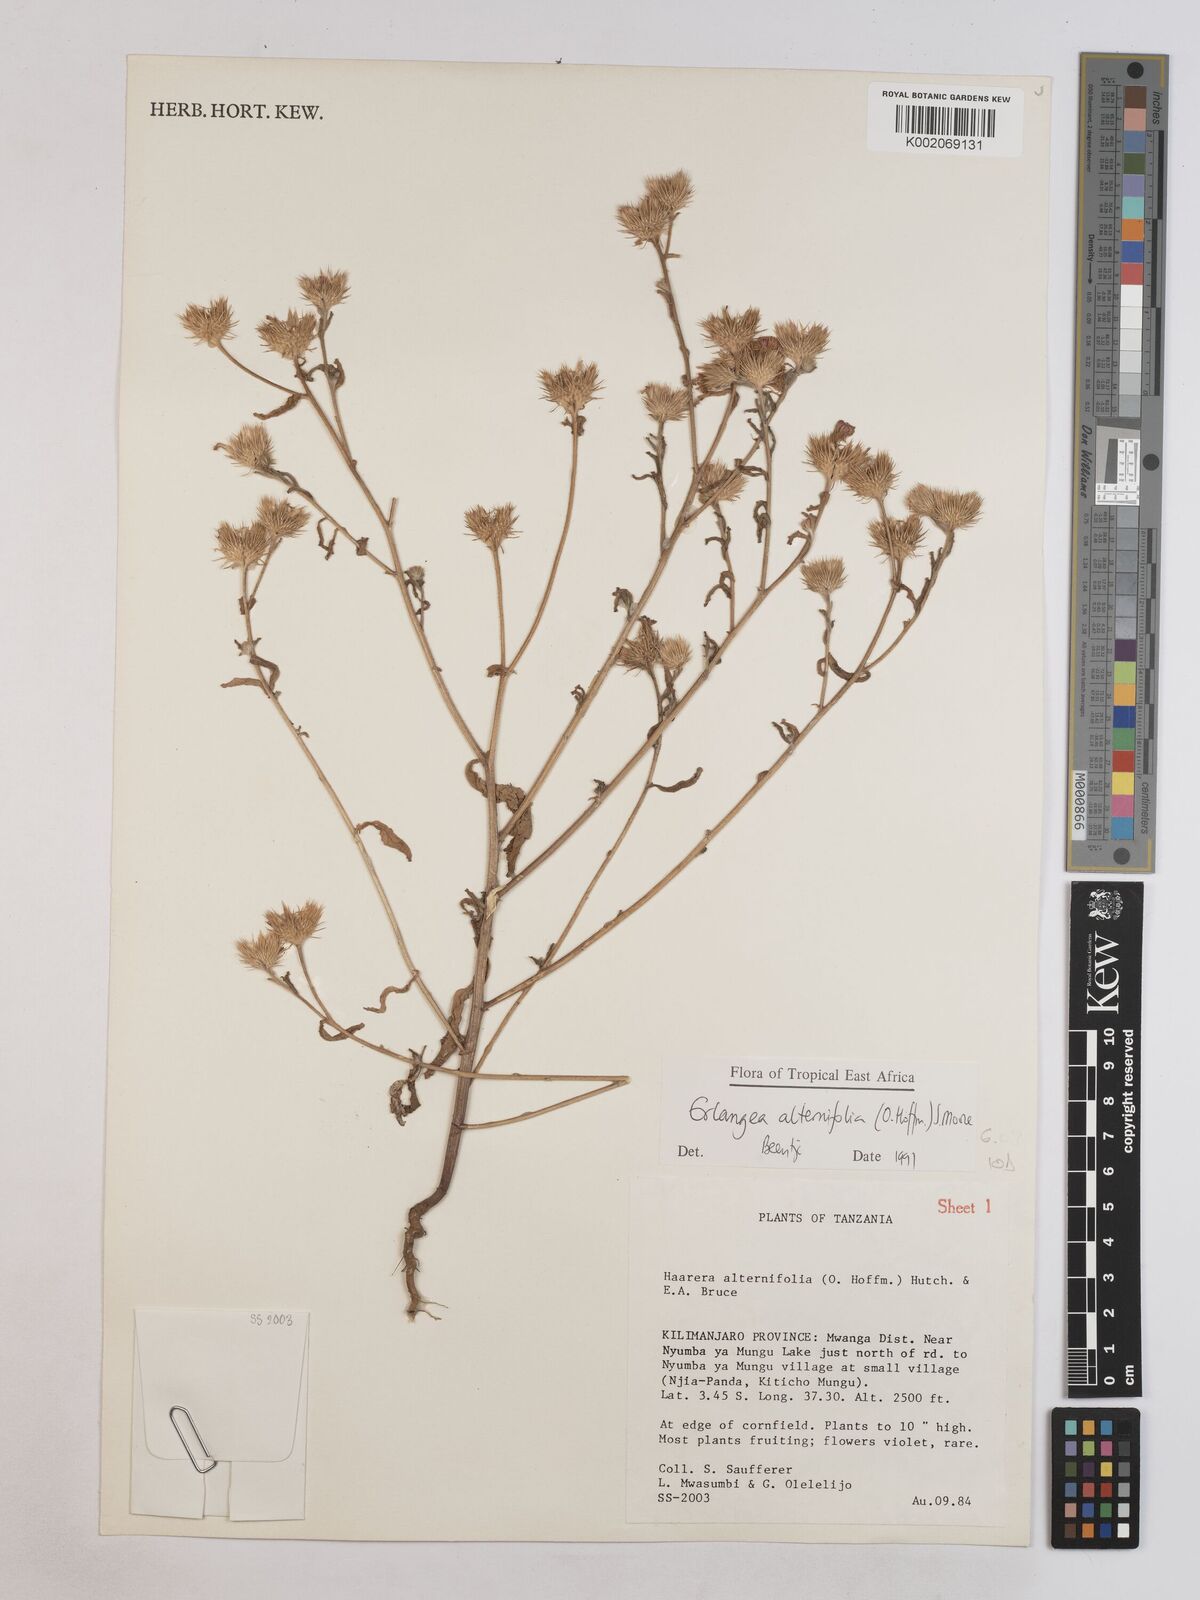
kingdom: Plantae
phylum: Tracheophyta
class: Magnoliopsida
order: Asterales
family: Asteraceae
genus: Erlangea
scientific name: Erlangea alternifolia
